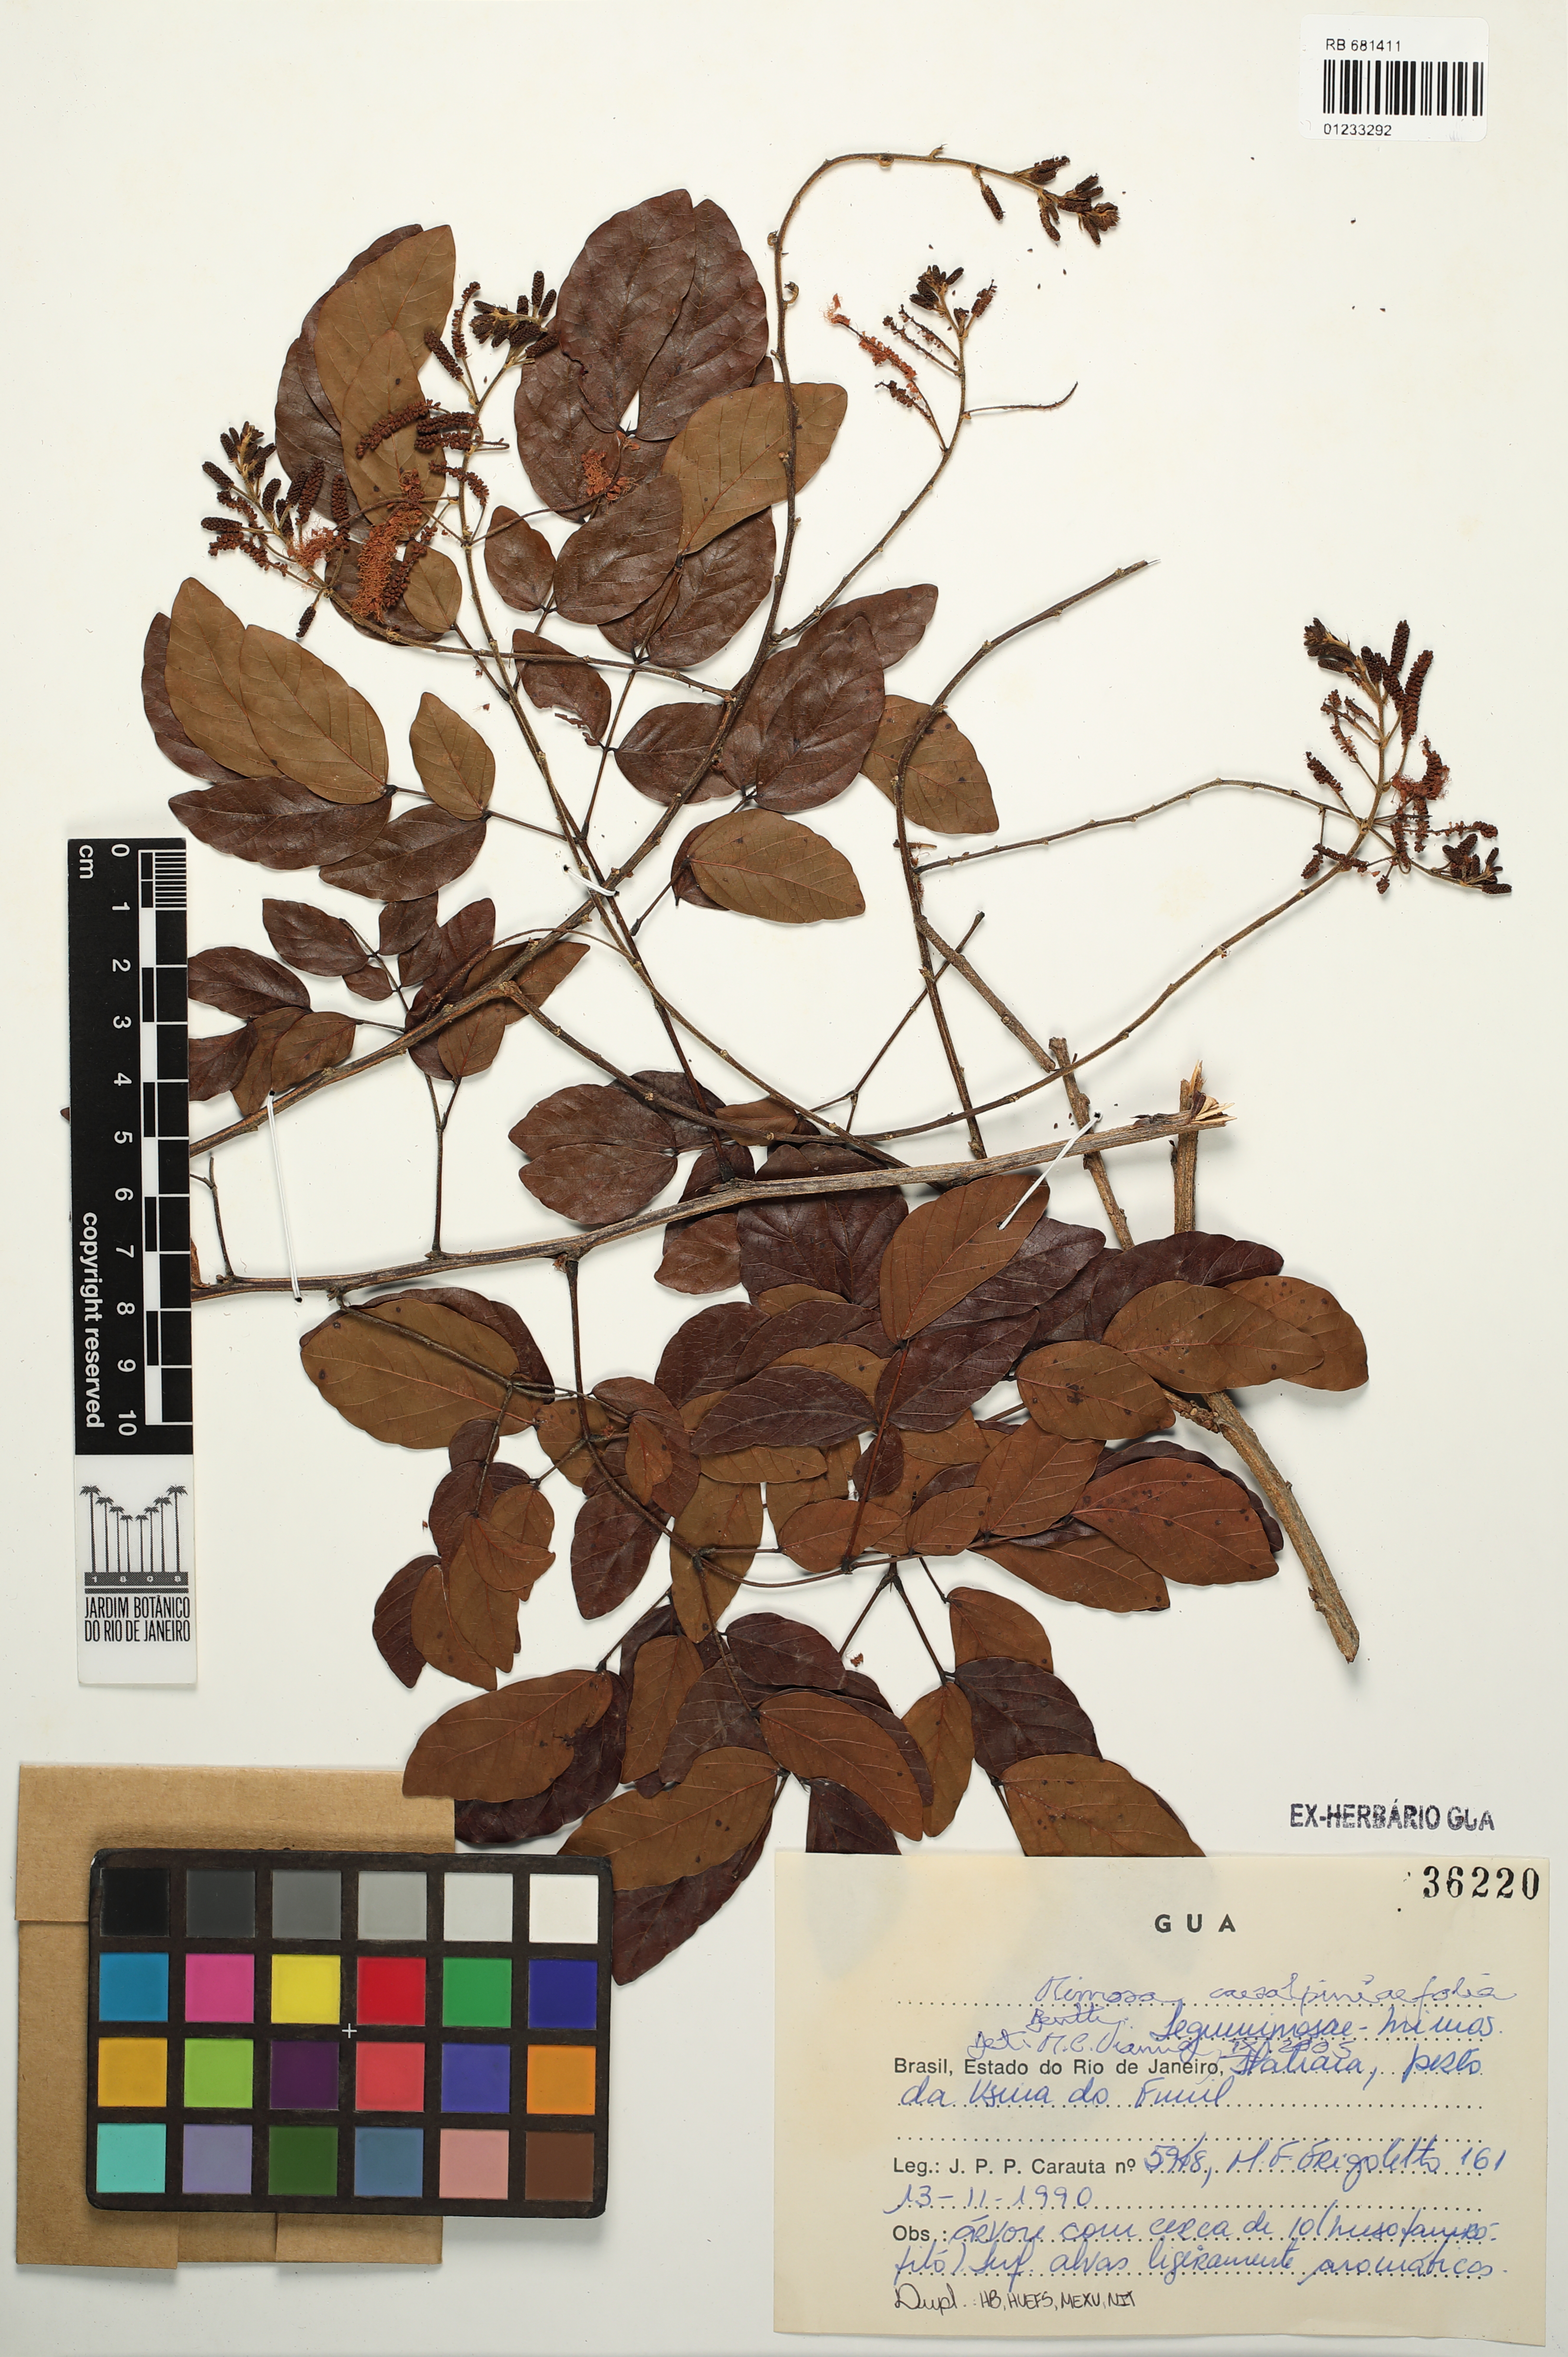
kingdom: Plantae
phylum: Tracheophyta
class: Magnoliopsida
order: Fabales
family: Fabaceae
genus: Mimosa
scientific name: Mimosa caesalpiniifolia
